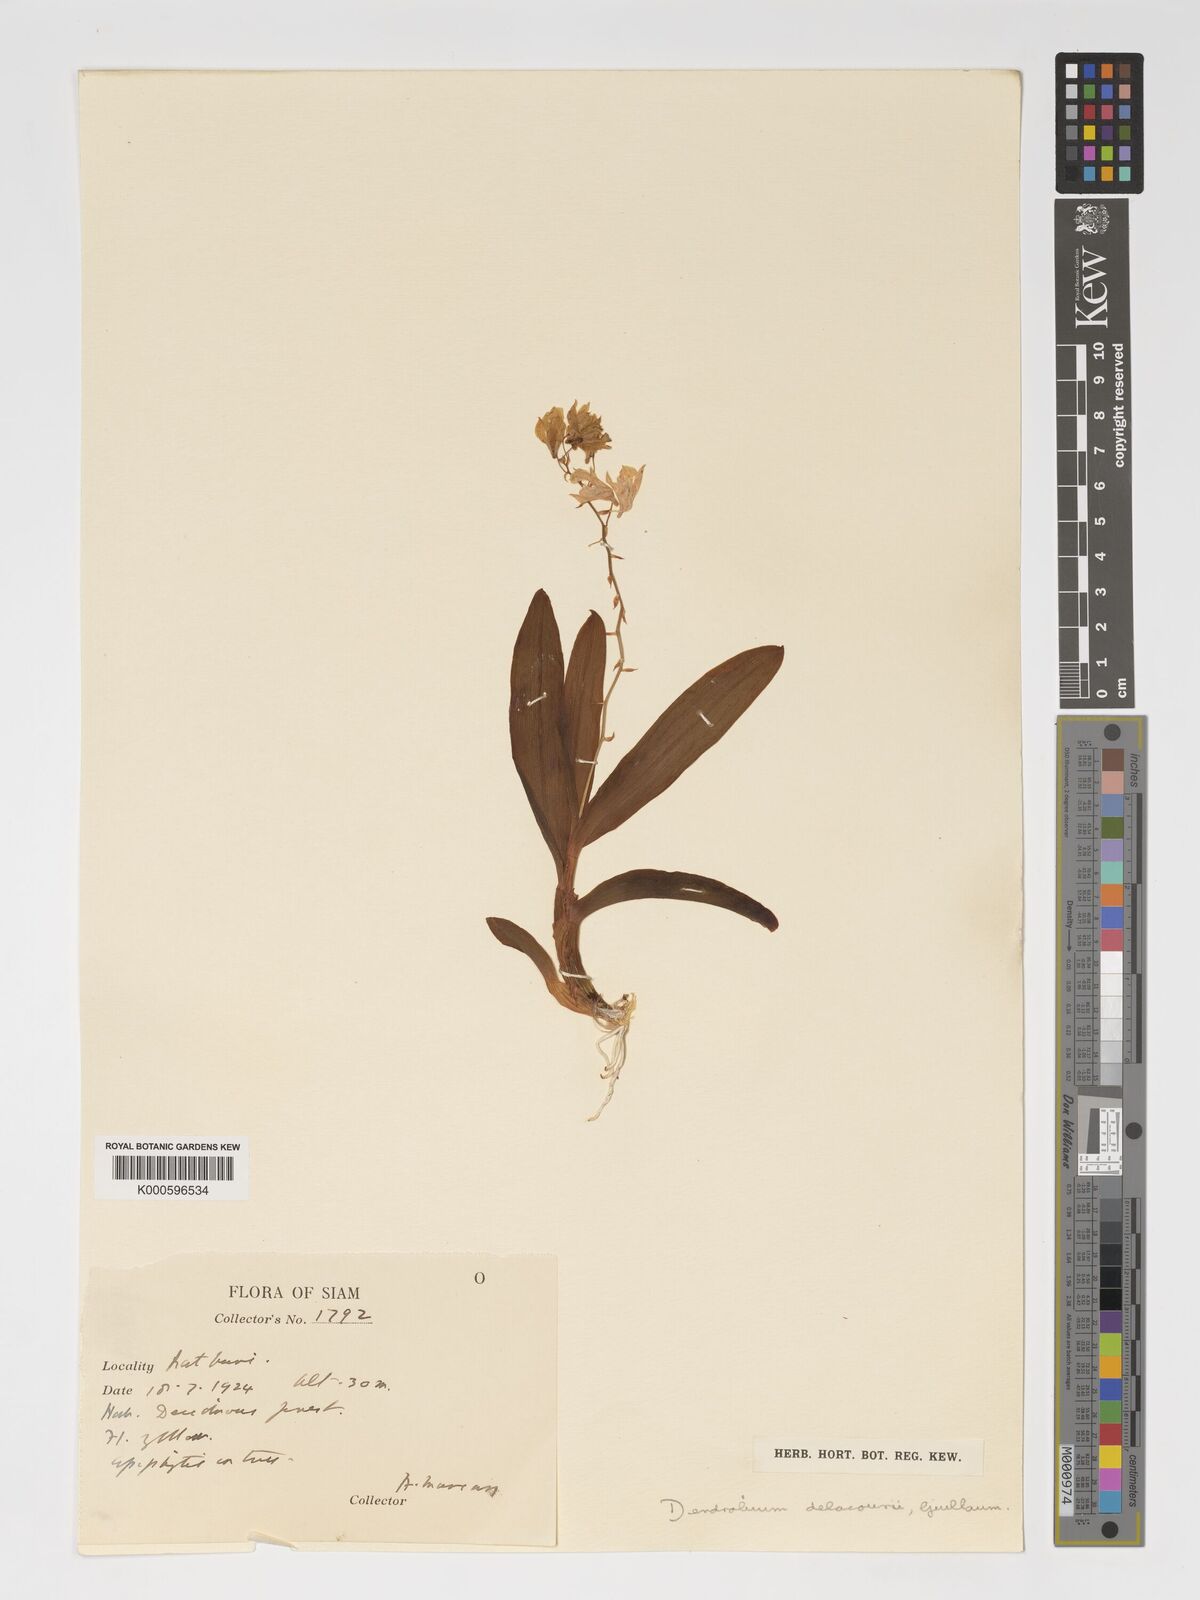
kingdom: Plantae
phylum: Tracheophyta
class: Liliopsida
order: Asparagales
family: Orchidaceae
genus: Dendrobium
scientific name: Dendrobium delacourii
